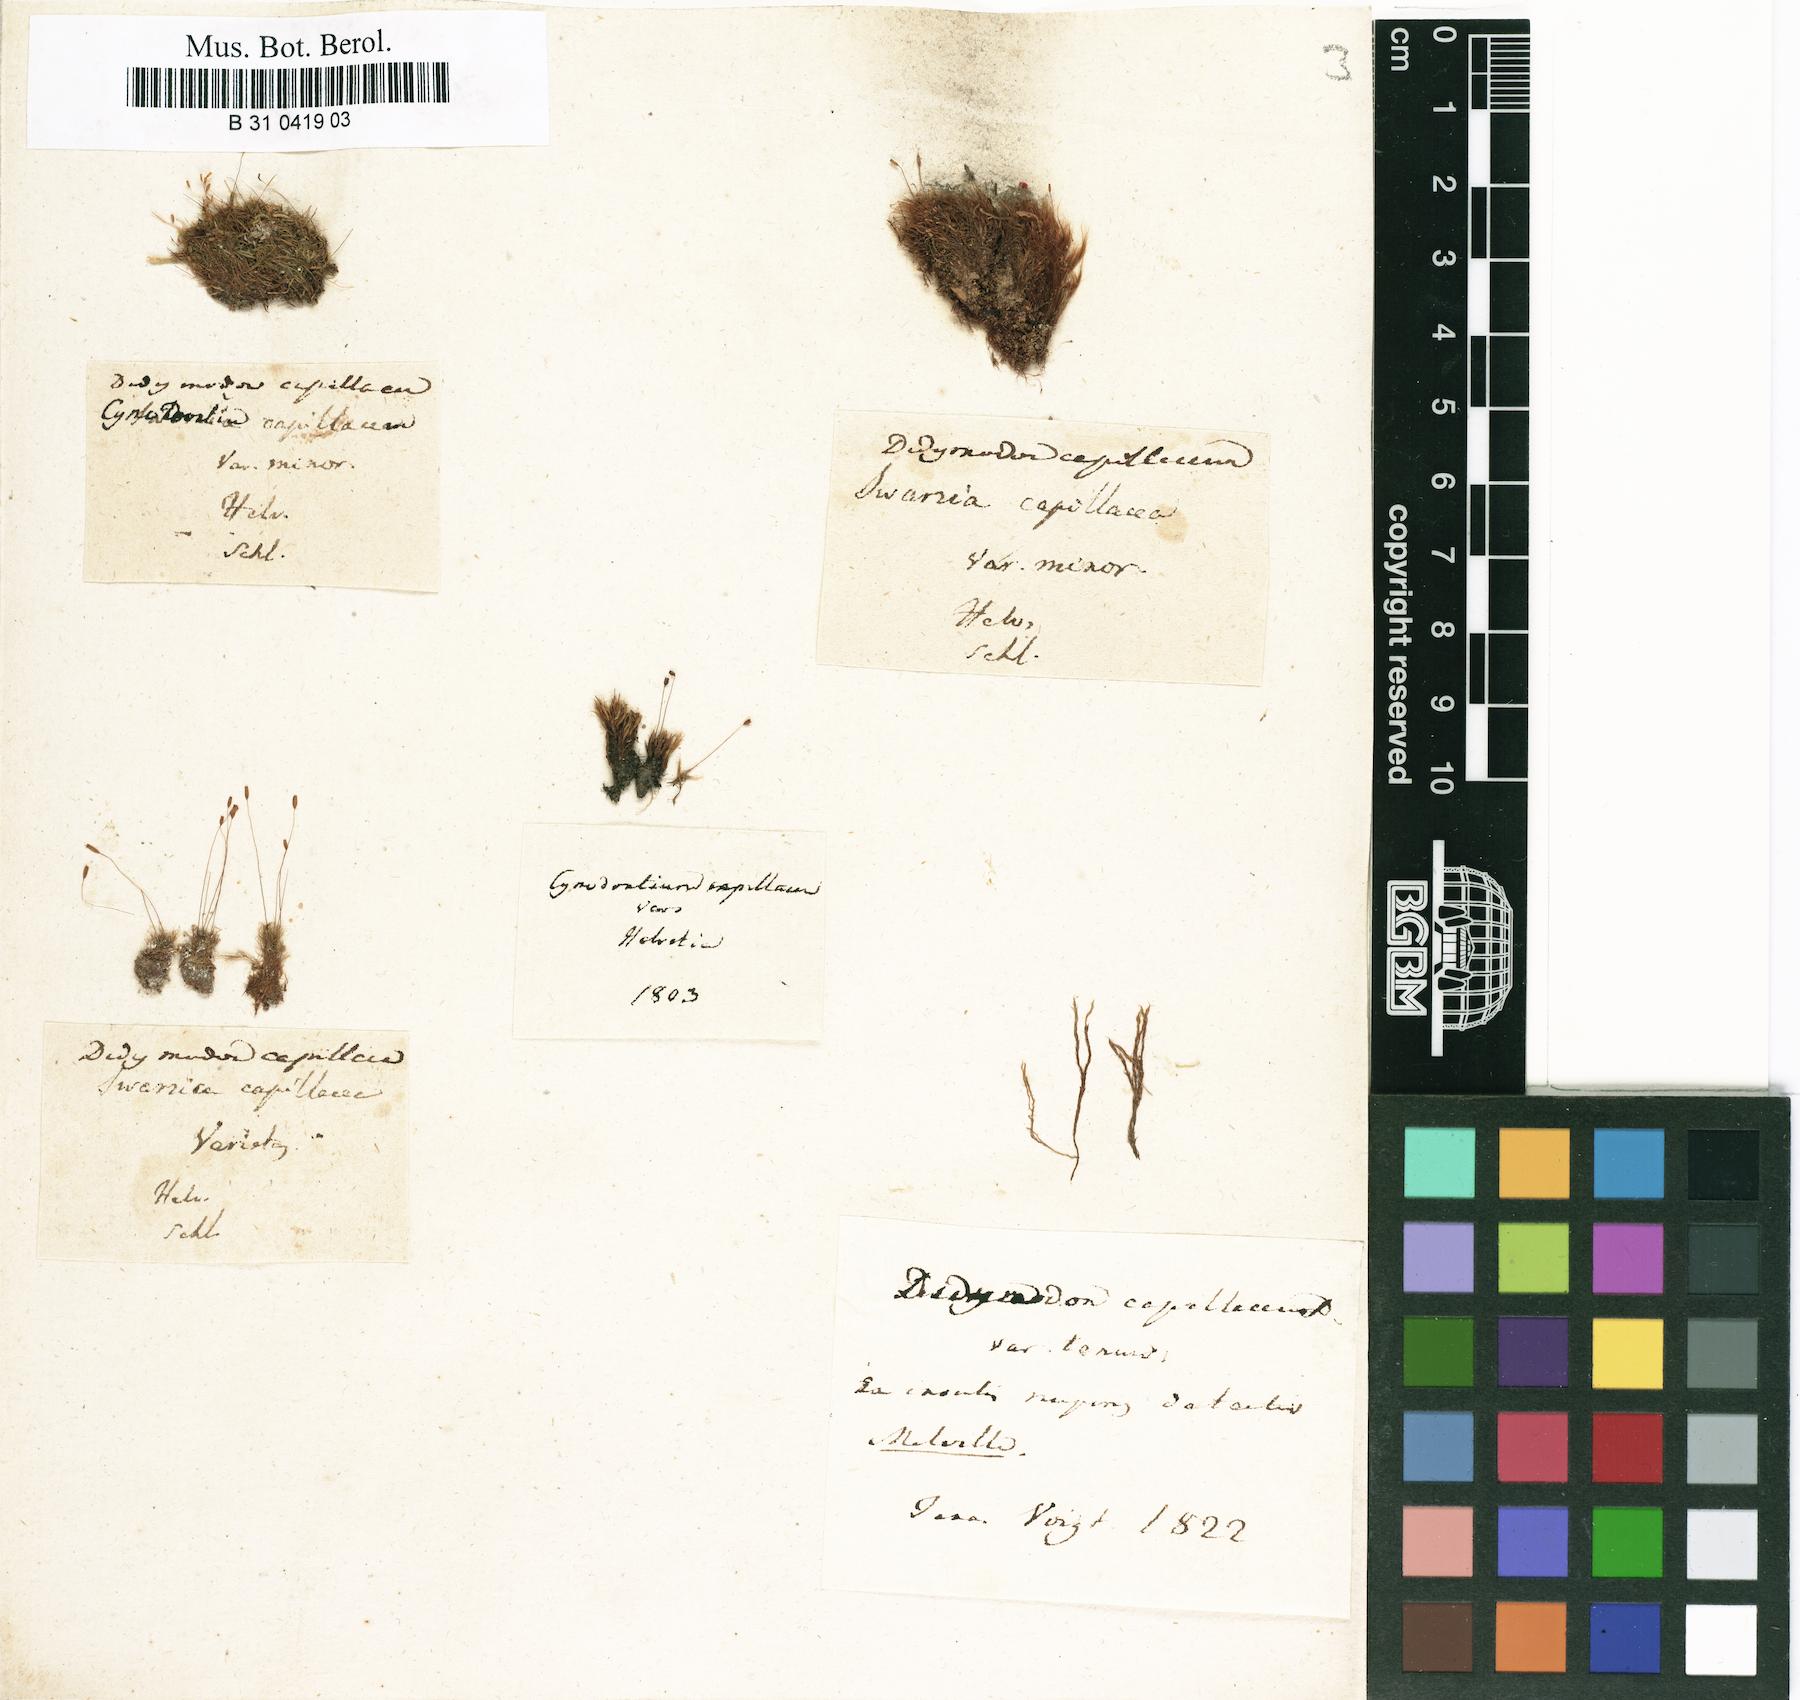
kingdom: Plantae
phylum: Bryophyta
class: Bryopsida
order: Scouleriales
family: Distichiaceae
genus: Distichium
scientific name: Distichium capillaceum
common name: Erect-fruited iris moss
